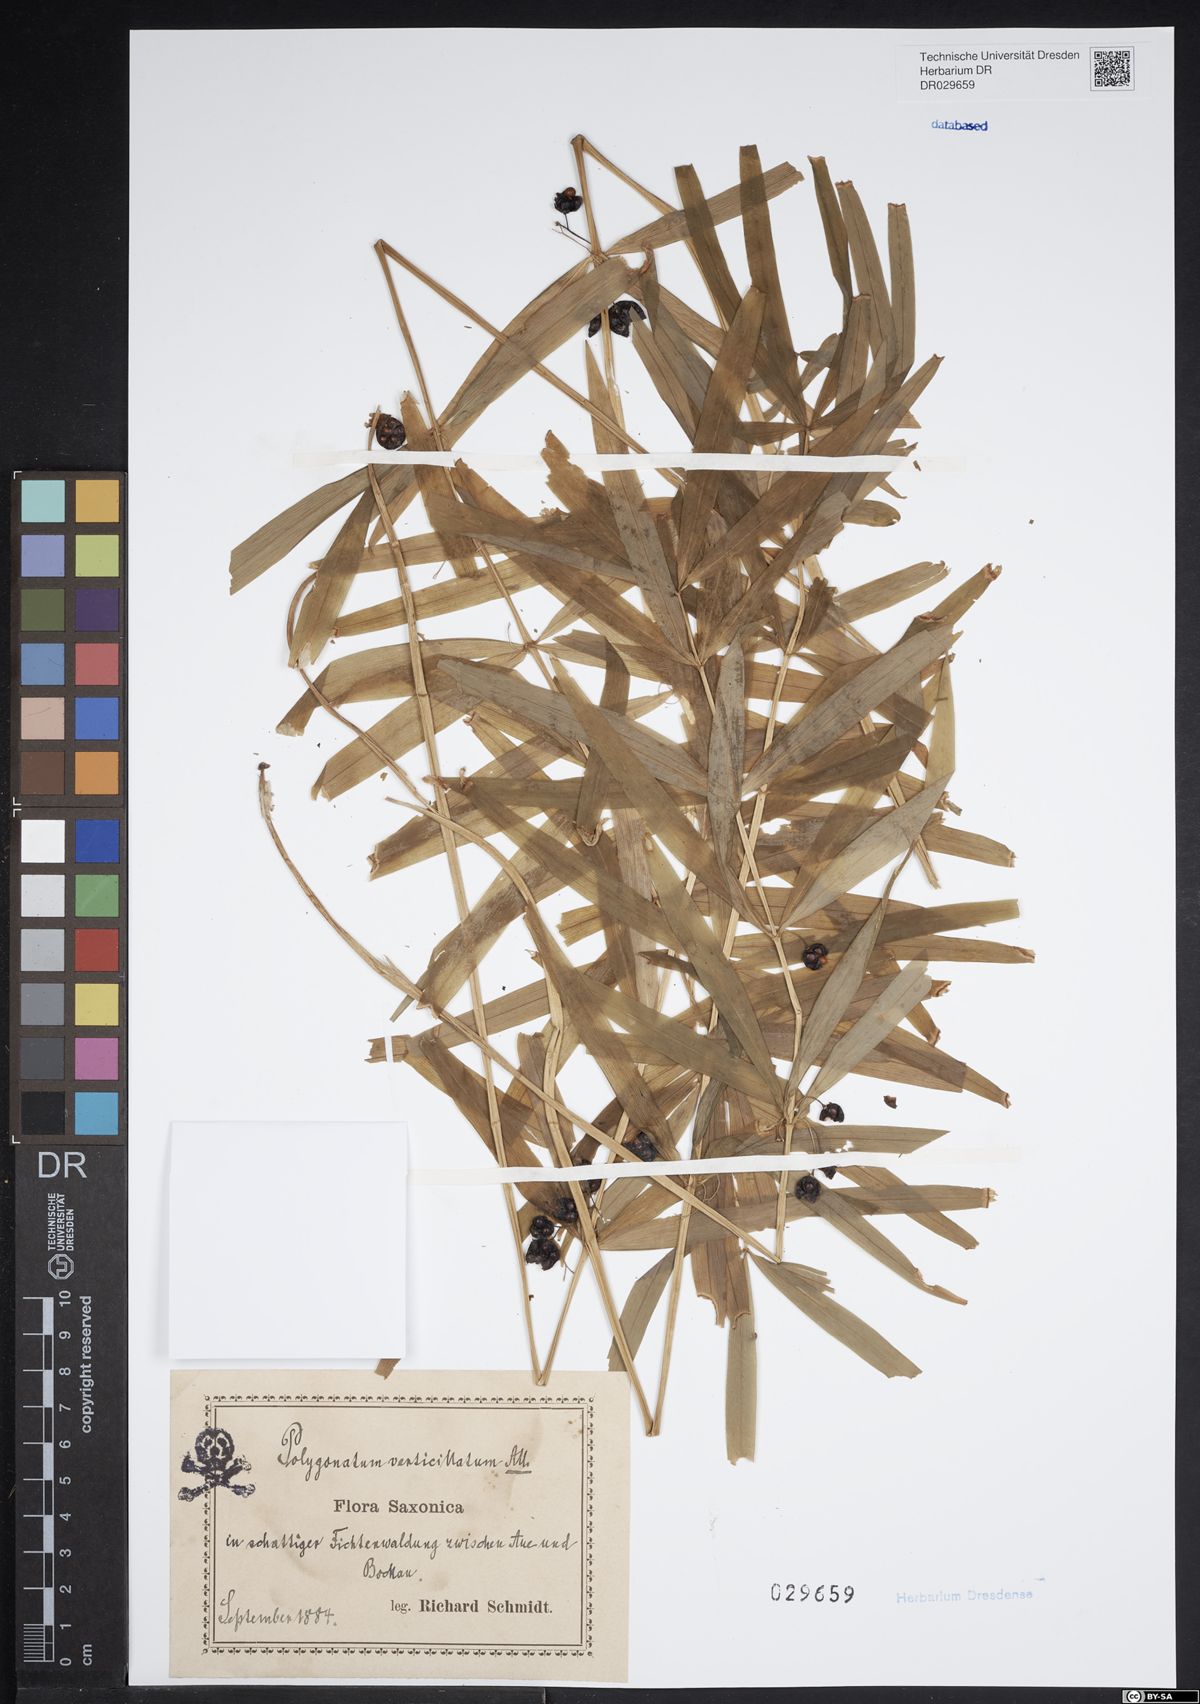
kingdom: Plantae
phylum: Tracheophyta
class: Liliopsida
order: Asparagales
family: Asparagaceae
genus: Polygonatum
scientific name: Polygonatum verticillatum
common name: Whorled solomon's-seal
